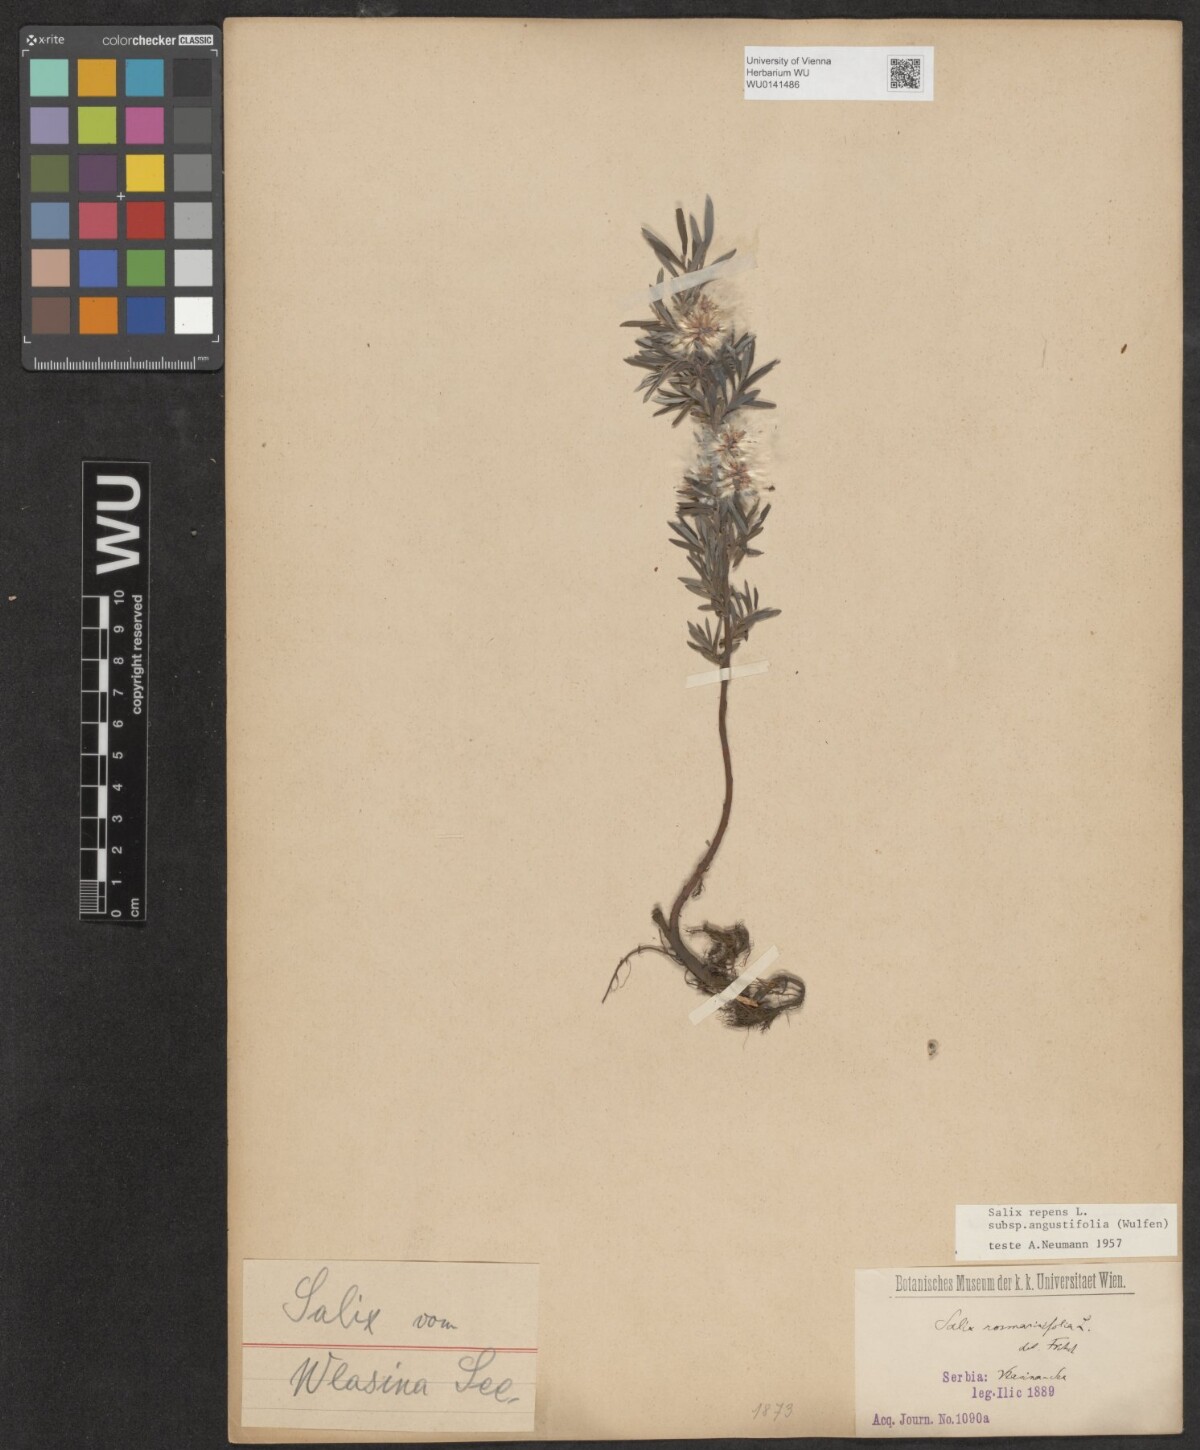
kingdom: Plantae
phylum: Tracheophyta
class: Magnoliopsida
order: Malpighiales
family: Salicaceae
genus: Salix
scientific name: Salix rosmarinifolia
